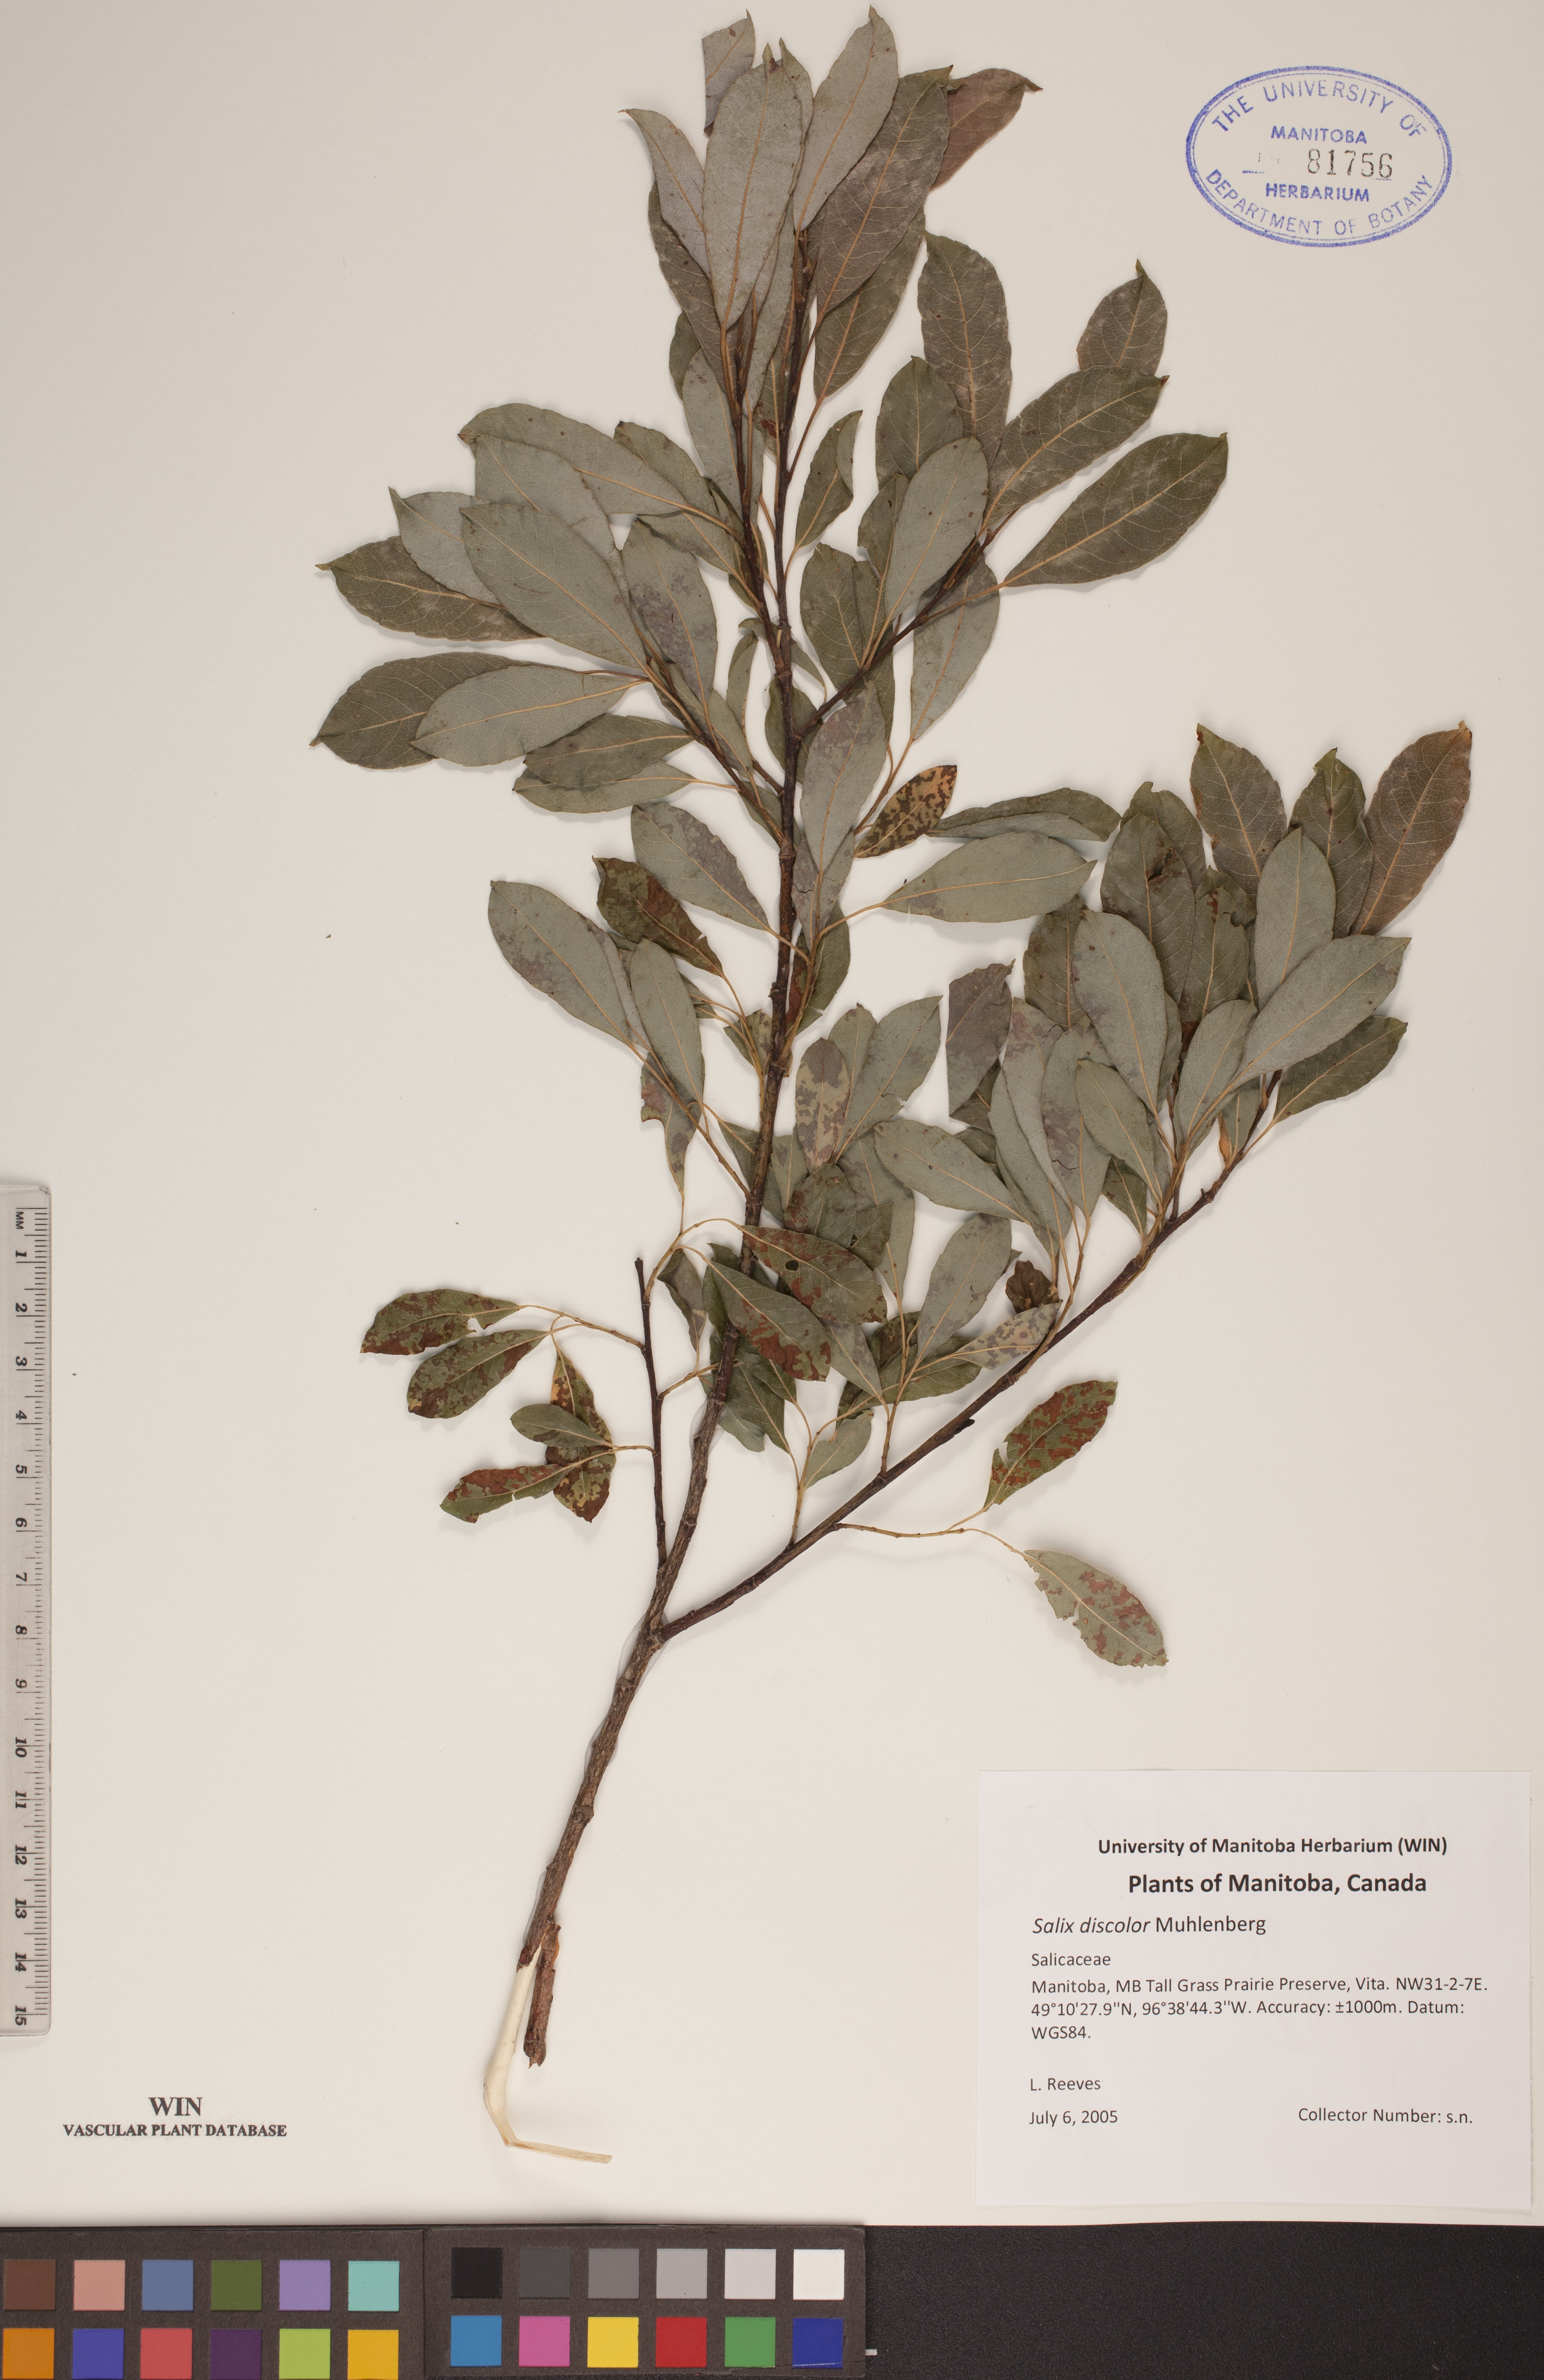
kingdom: Plantae
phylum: Tracheophyta
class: Magnoliopsida
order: Malpighiales
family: Salicaceae
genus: Salix
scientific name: Salix discolor
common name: Glaucous willow
